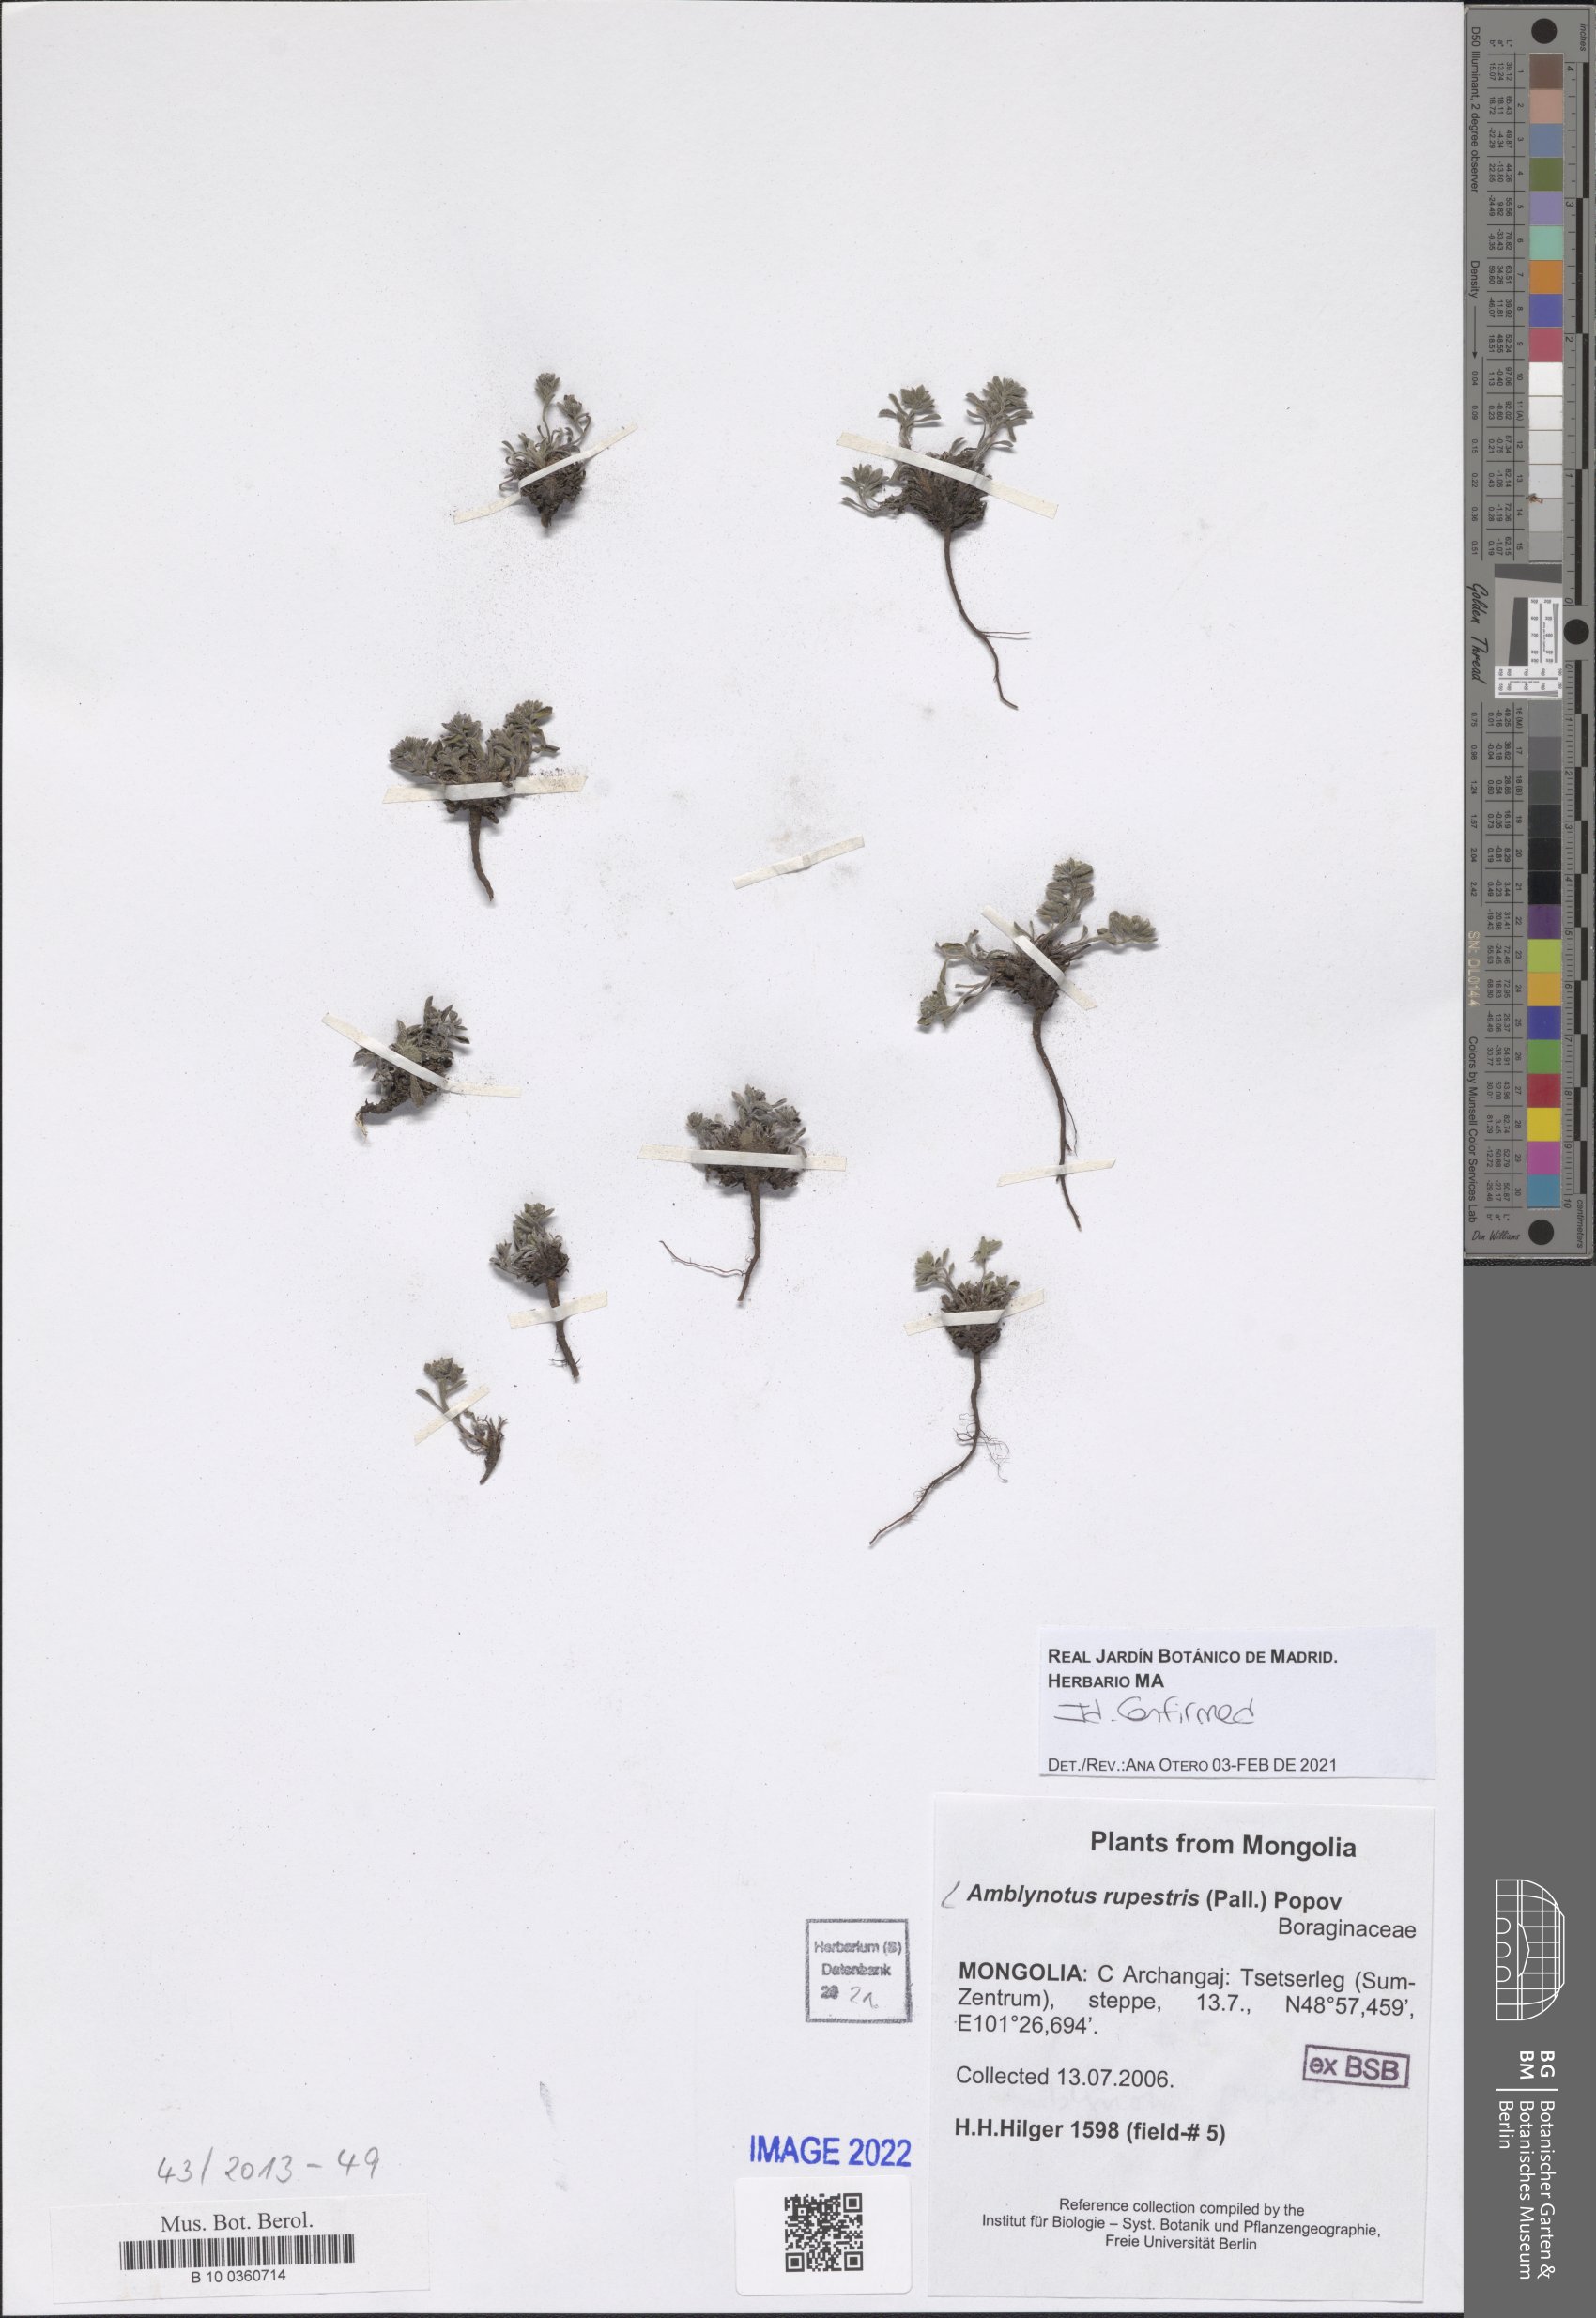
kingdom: Plantae
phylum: Tracheophyta
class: Magnoliopsida
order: Boraginales
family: Boraginaceae
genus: Eritrichium
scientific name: Eritrichium rupestre
